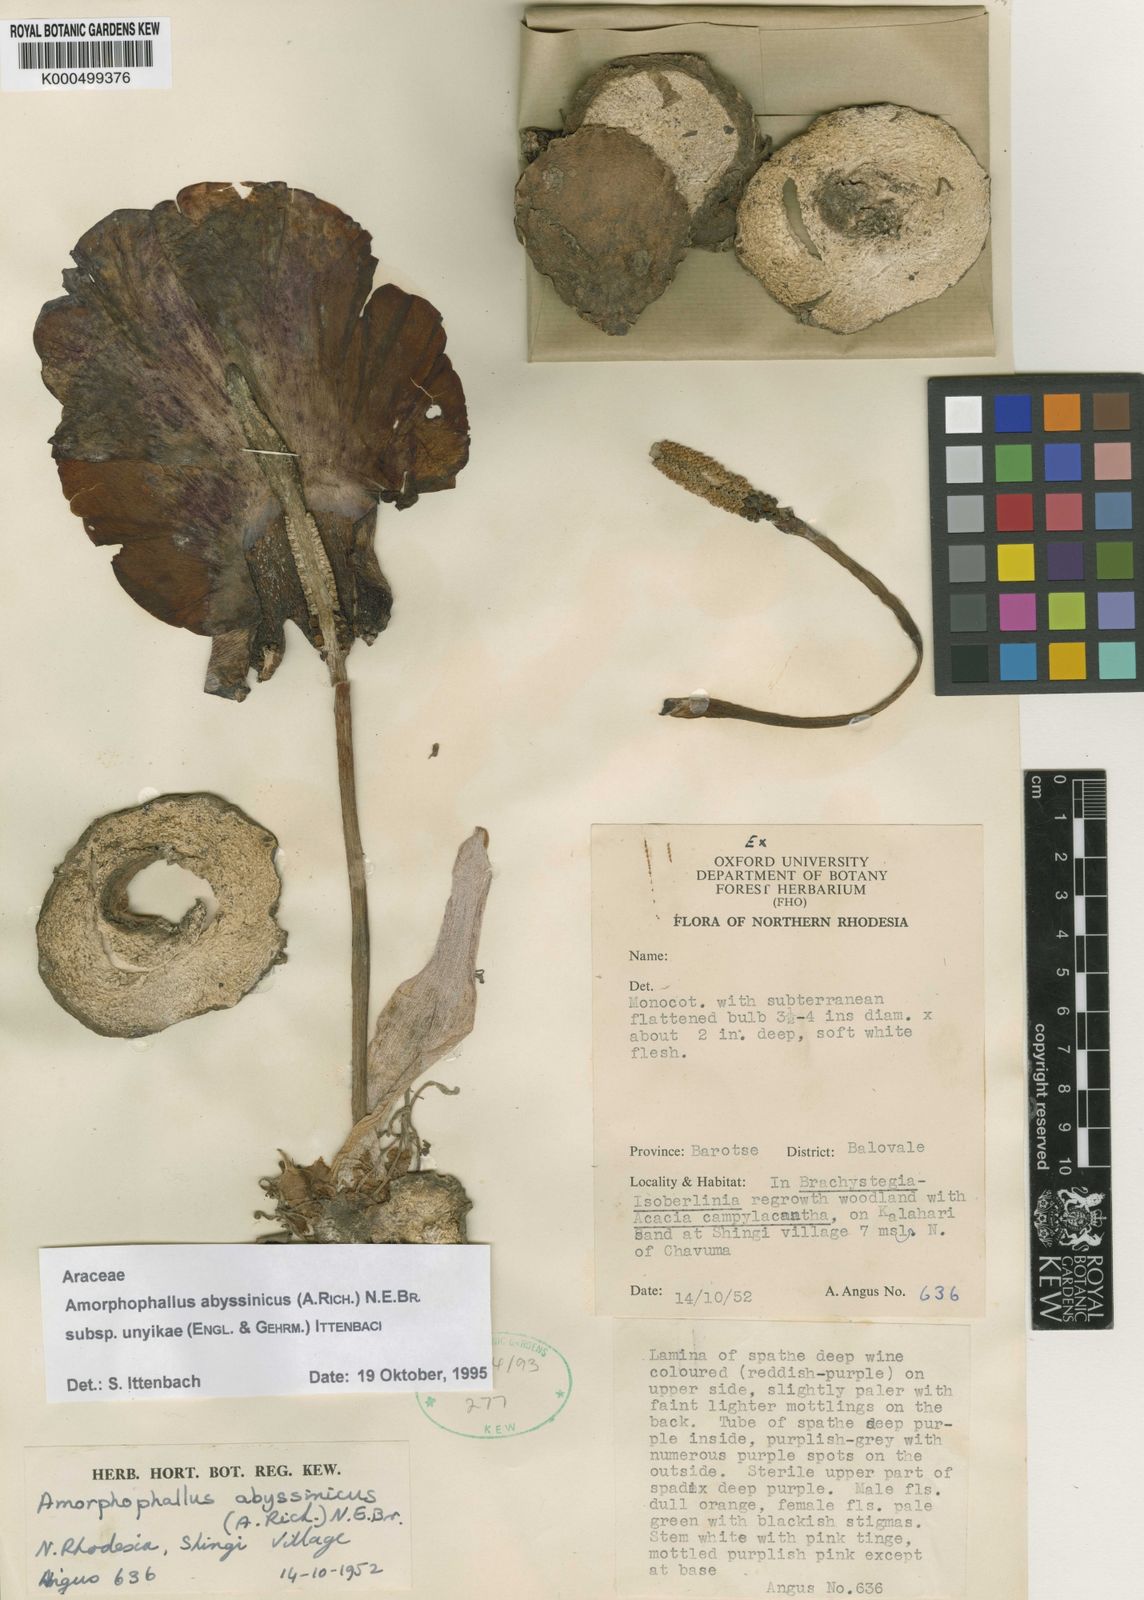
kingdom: Plantae
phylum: Tracheophyta
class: Liliopsida
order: Alismatales
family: Araceae
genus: Amorphophallus
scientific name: Amorphophallus abyssinicus
